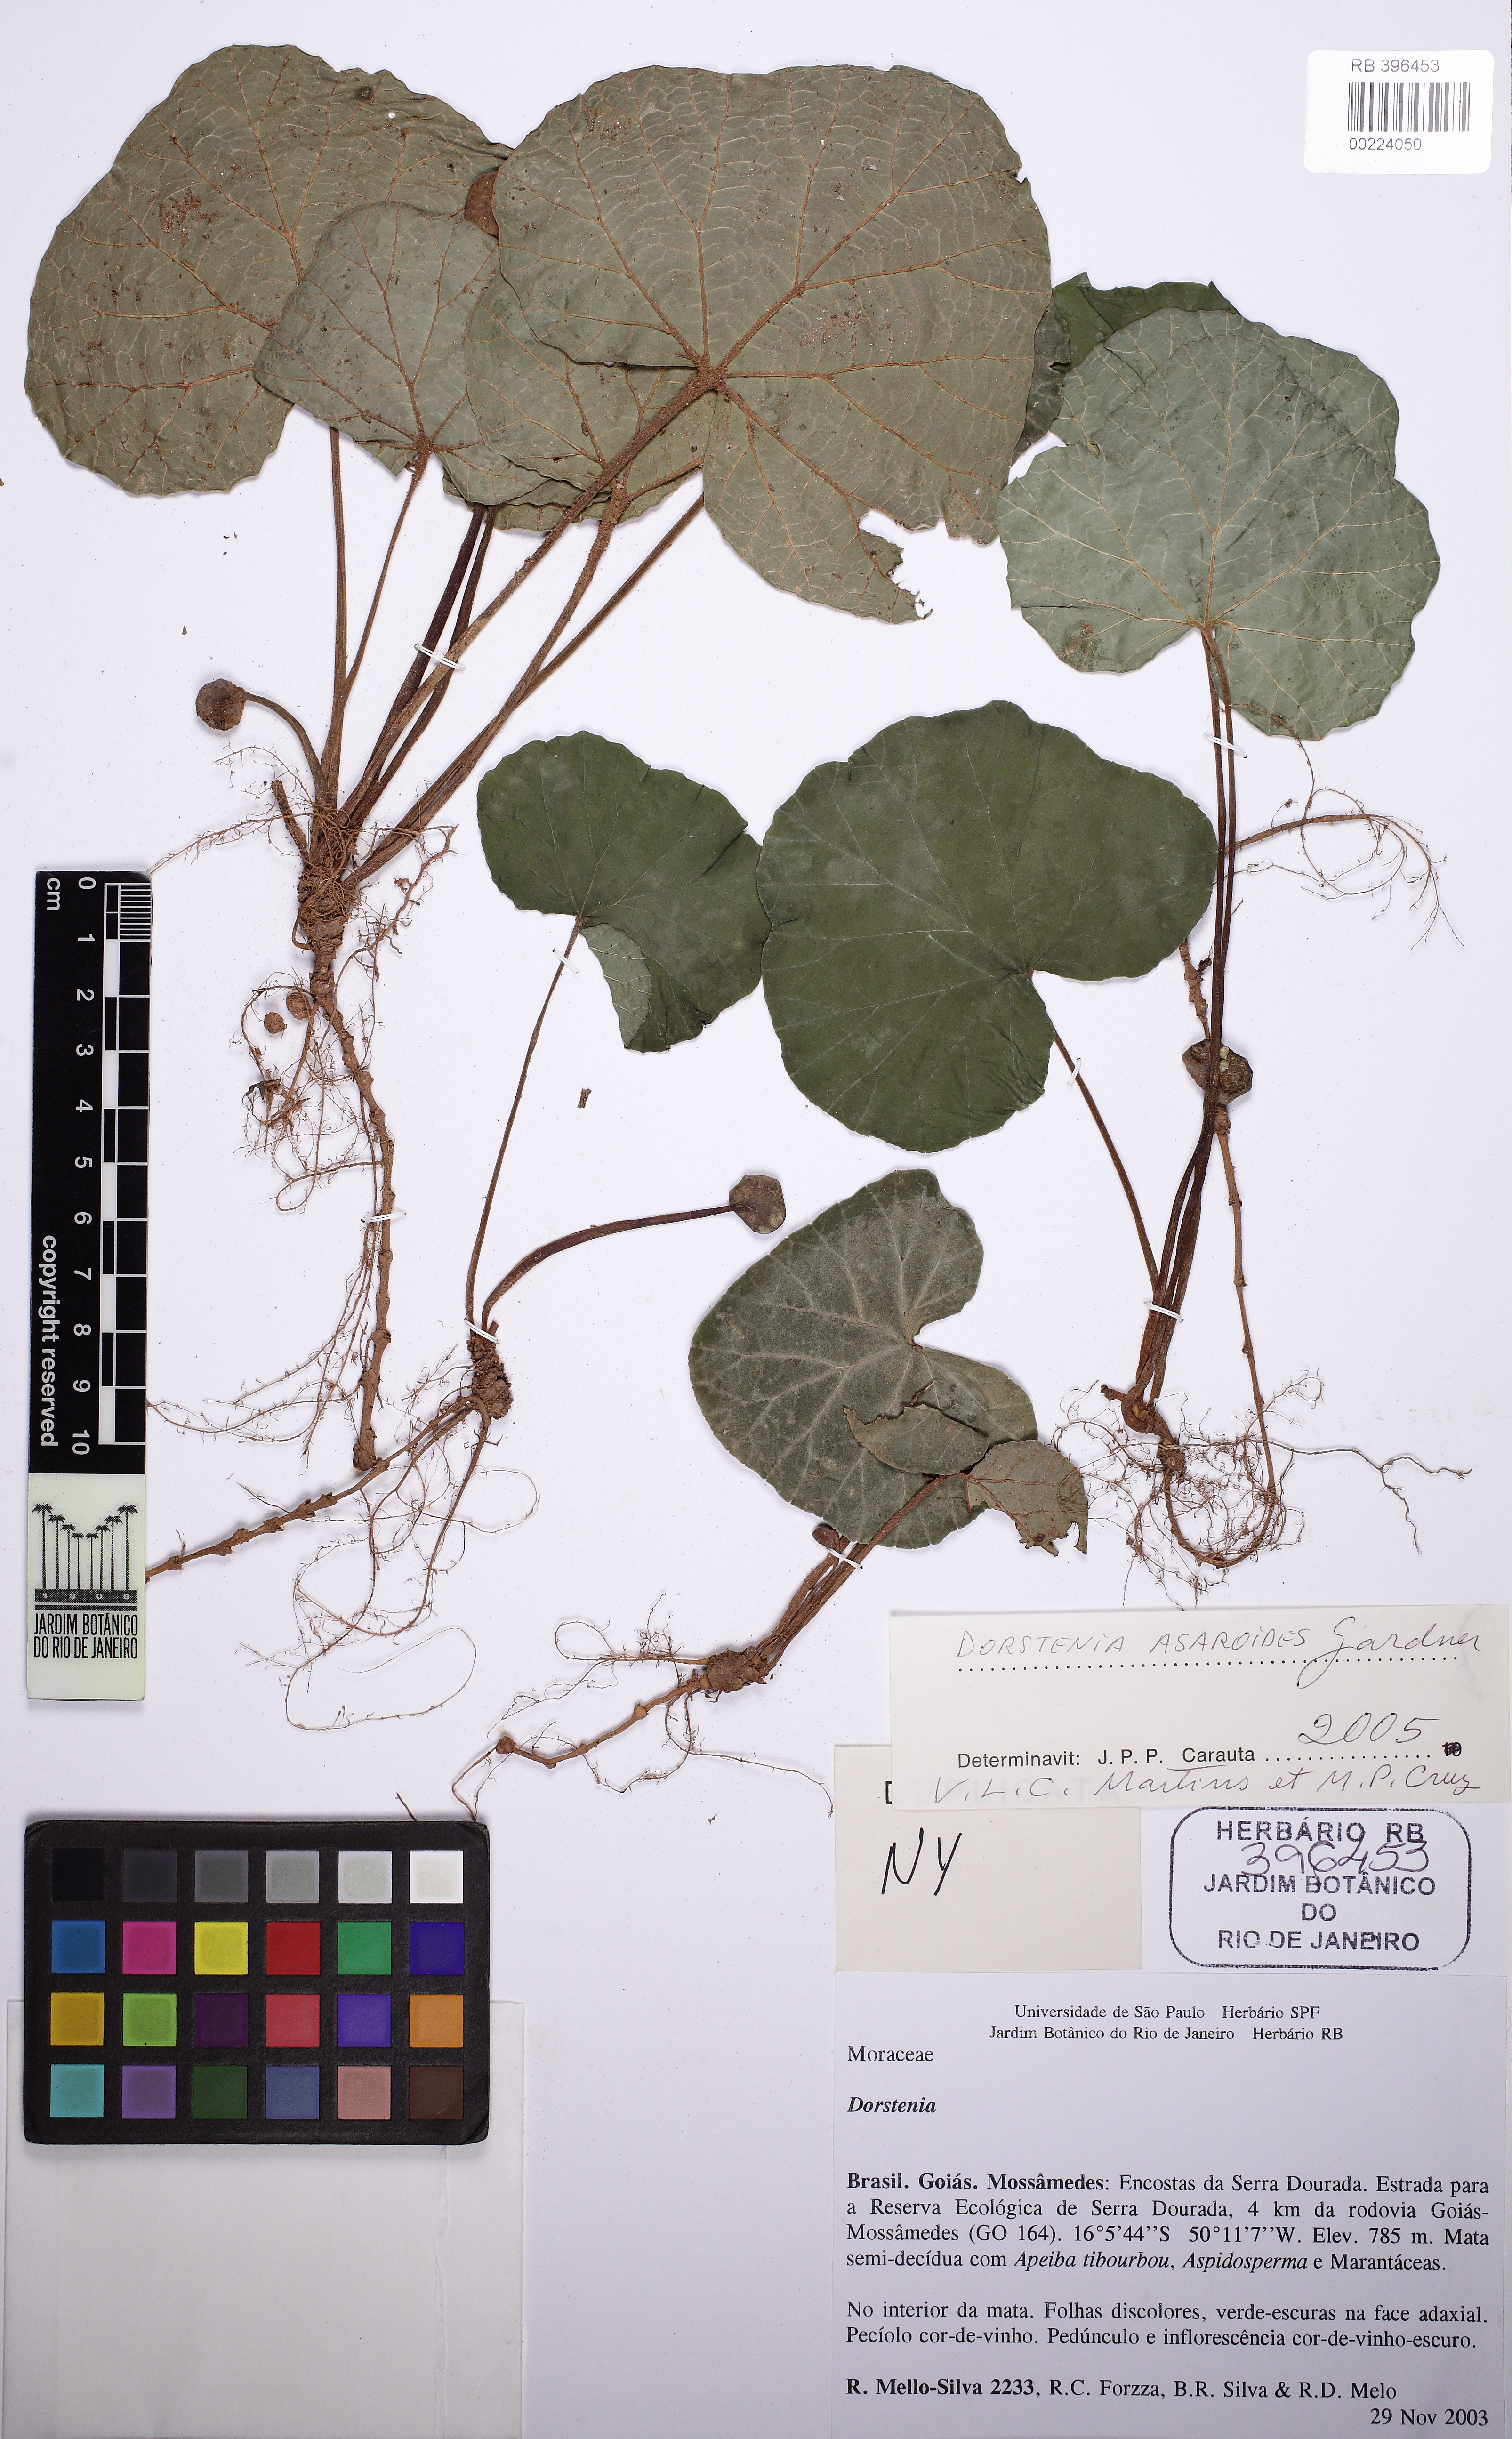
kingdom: Plantae
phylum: Tracheophyta
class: Magnoliopsida
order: Rosales
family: Moraceae
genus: Dorstenia
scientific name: Dorstenia cayapia
